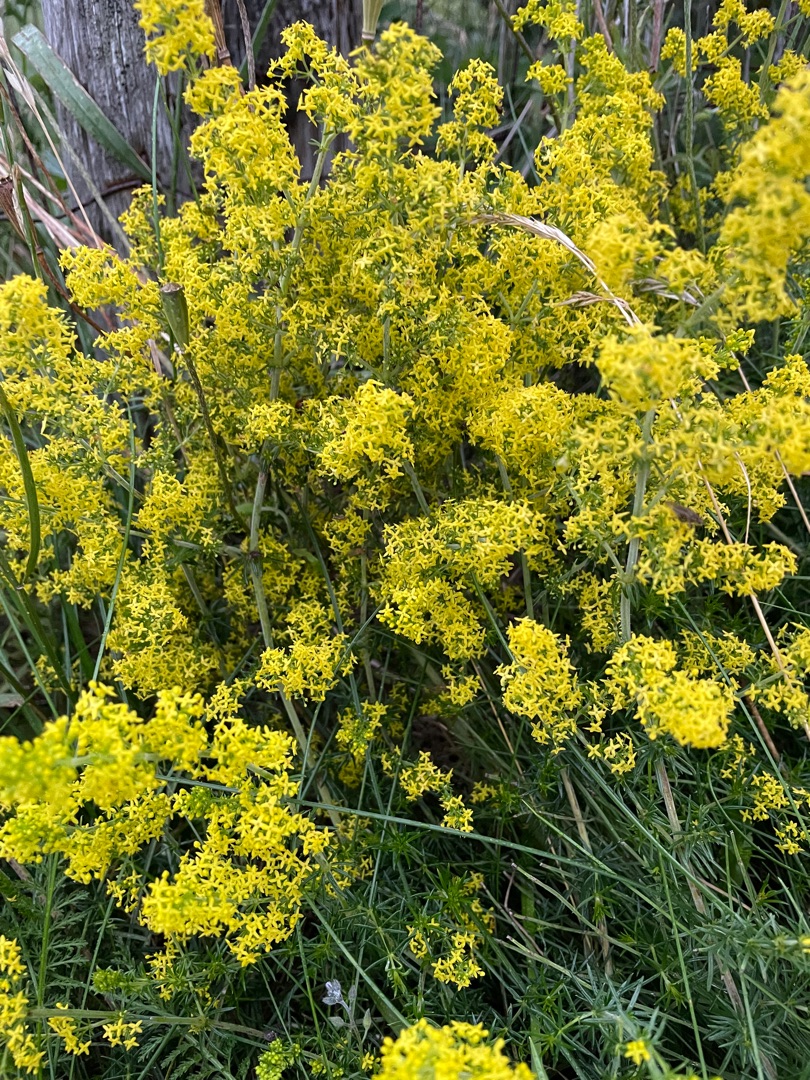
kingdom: Plantae
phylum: Tracheophyta
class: Magnoliopsida
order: Gentianales
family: Rubiaceae
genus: Galium
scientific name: Galium verum
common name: Gul snerre
